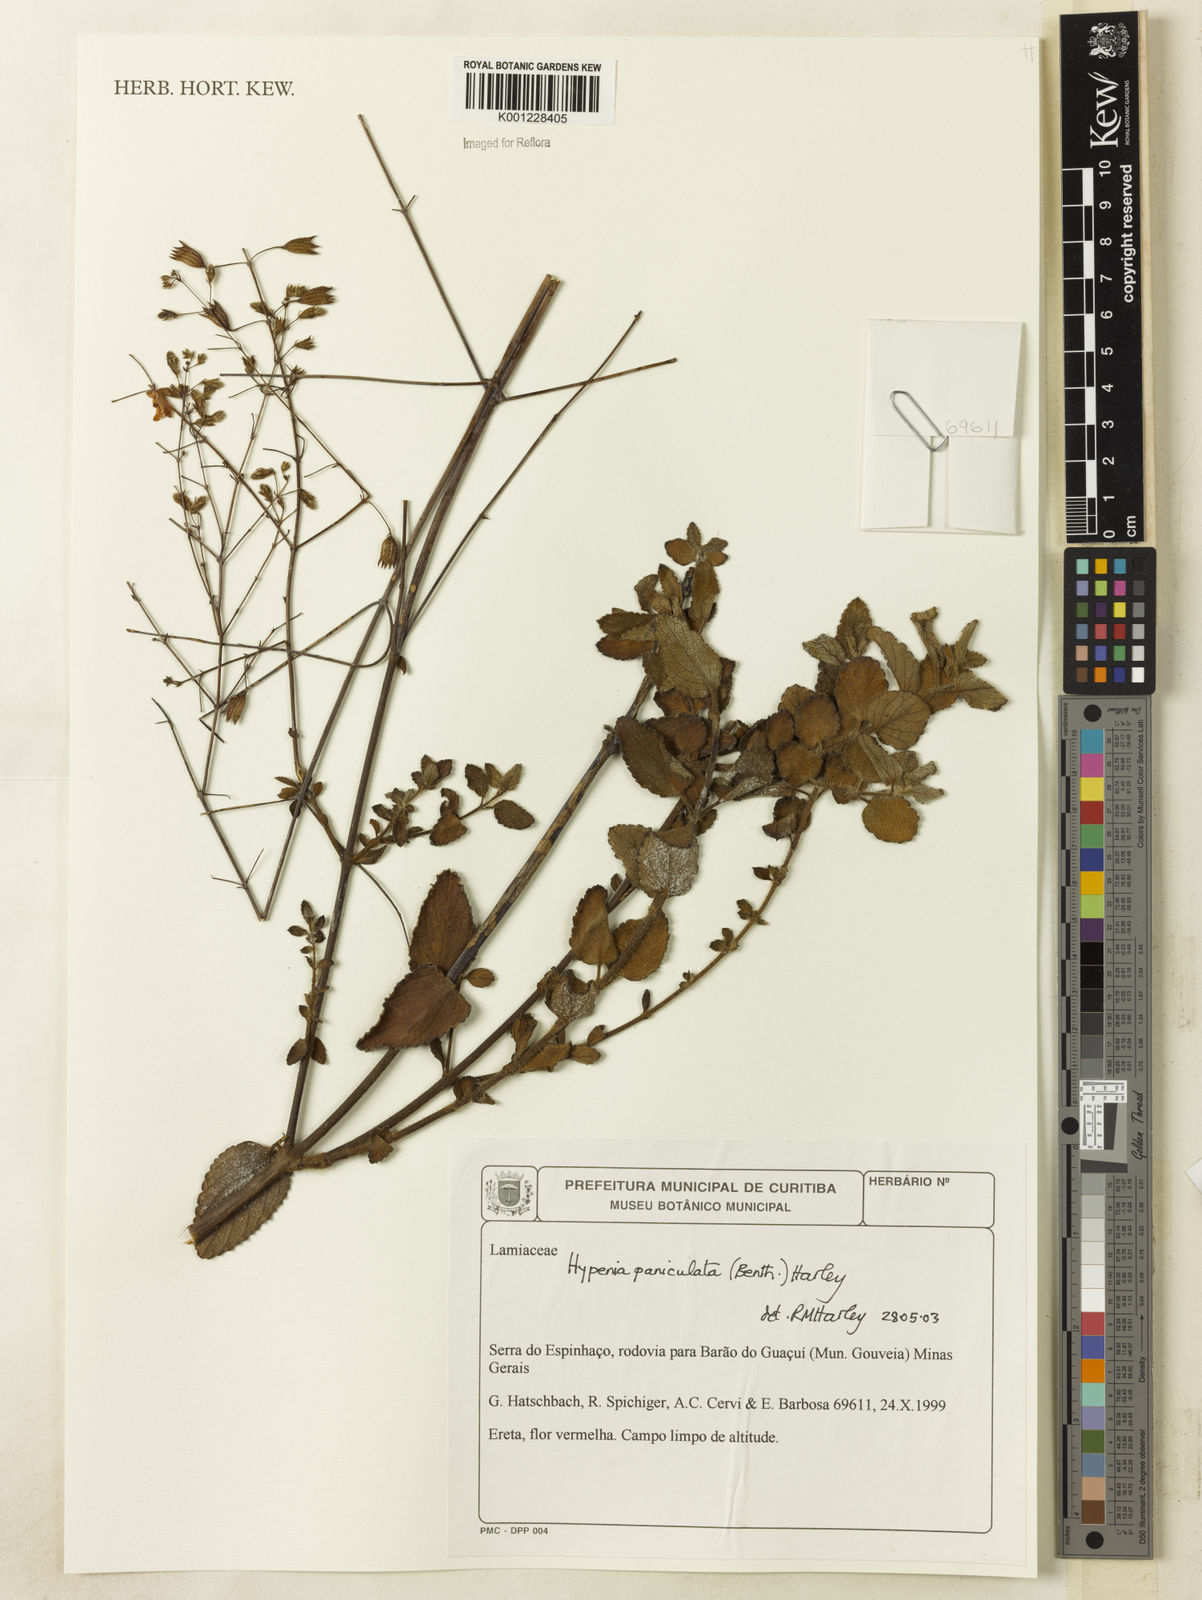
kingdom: Plantae
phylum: Tracheophyta
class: Magnoliopsida
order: Lamiales
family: Lamiaceae
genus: Hypenia
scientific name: Hypenia paniculata
